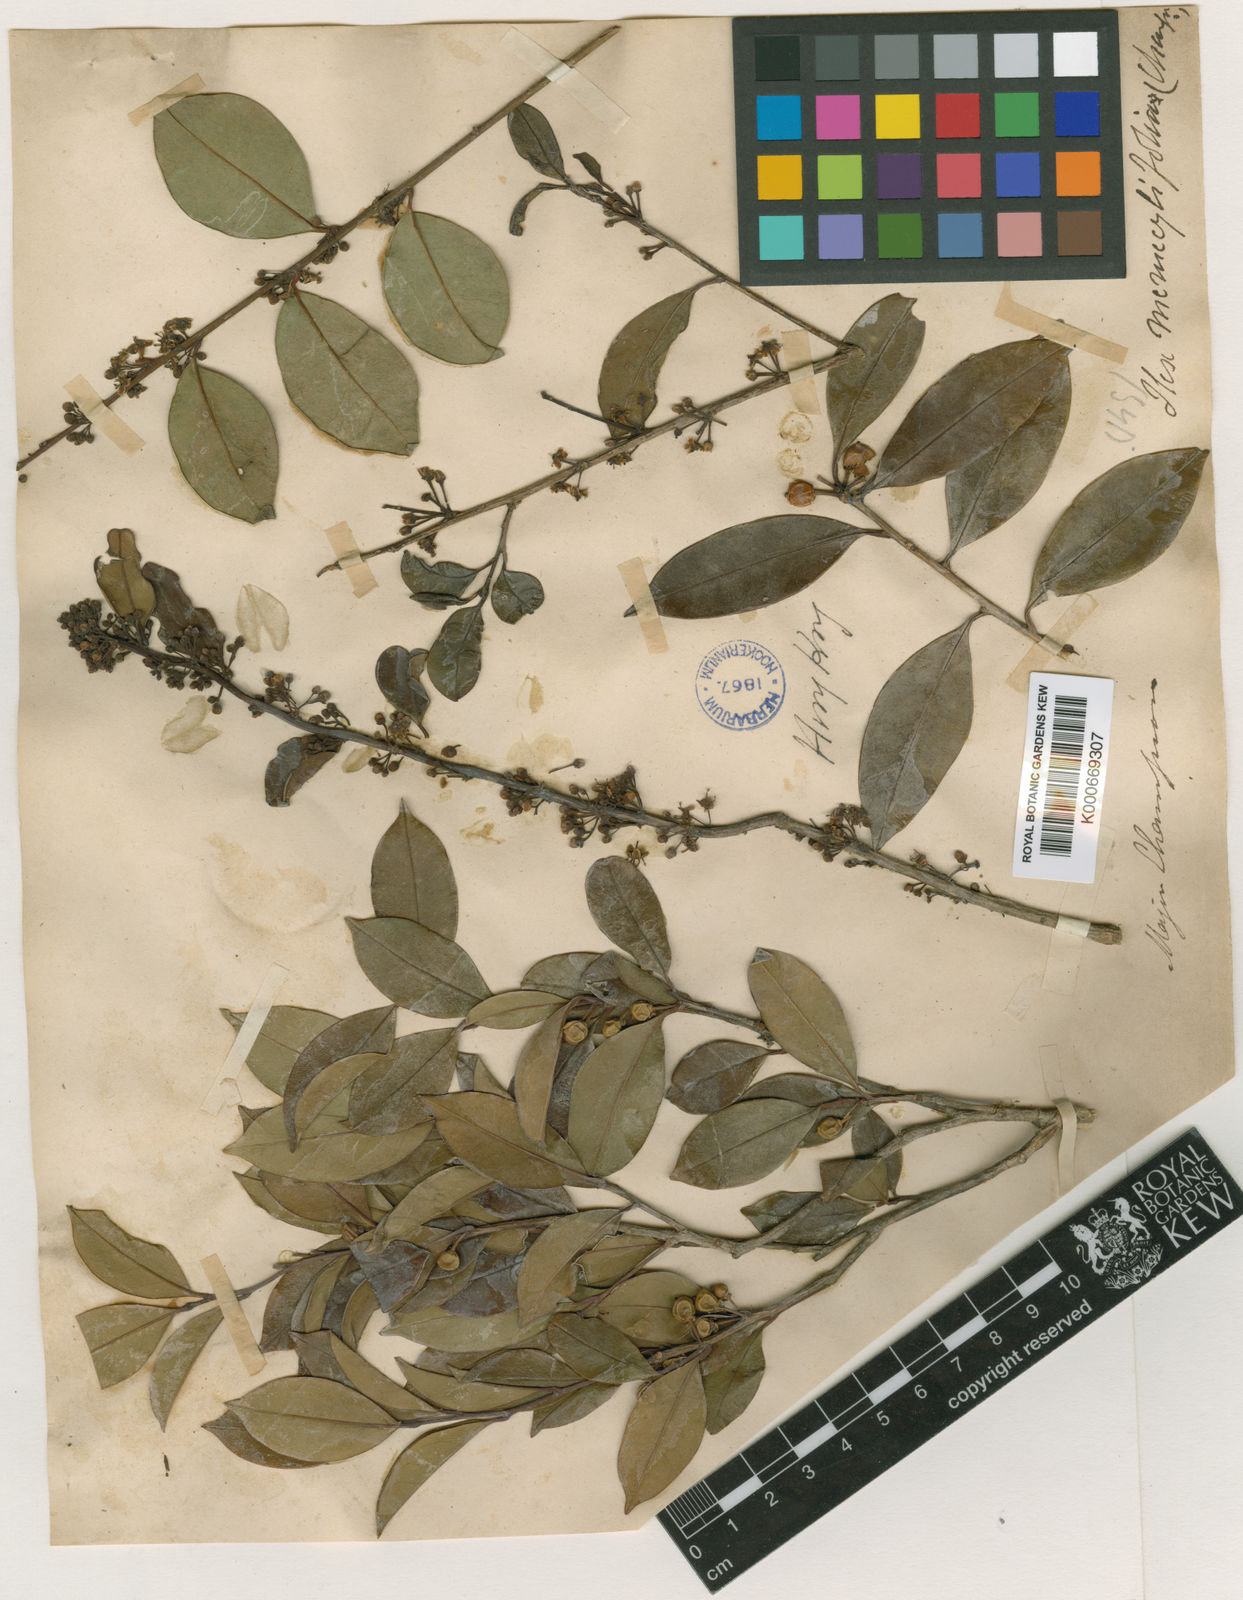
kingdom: Plantae
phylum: Tracheophyta
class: Magnoliopsida
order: Aquifoliales
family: Aquifoliaceae
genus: Ilex
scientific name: Ilex memecylifolia
